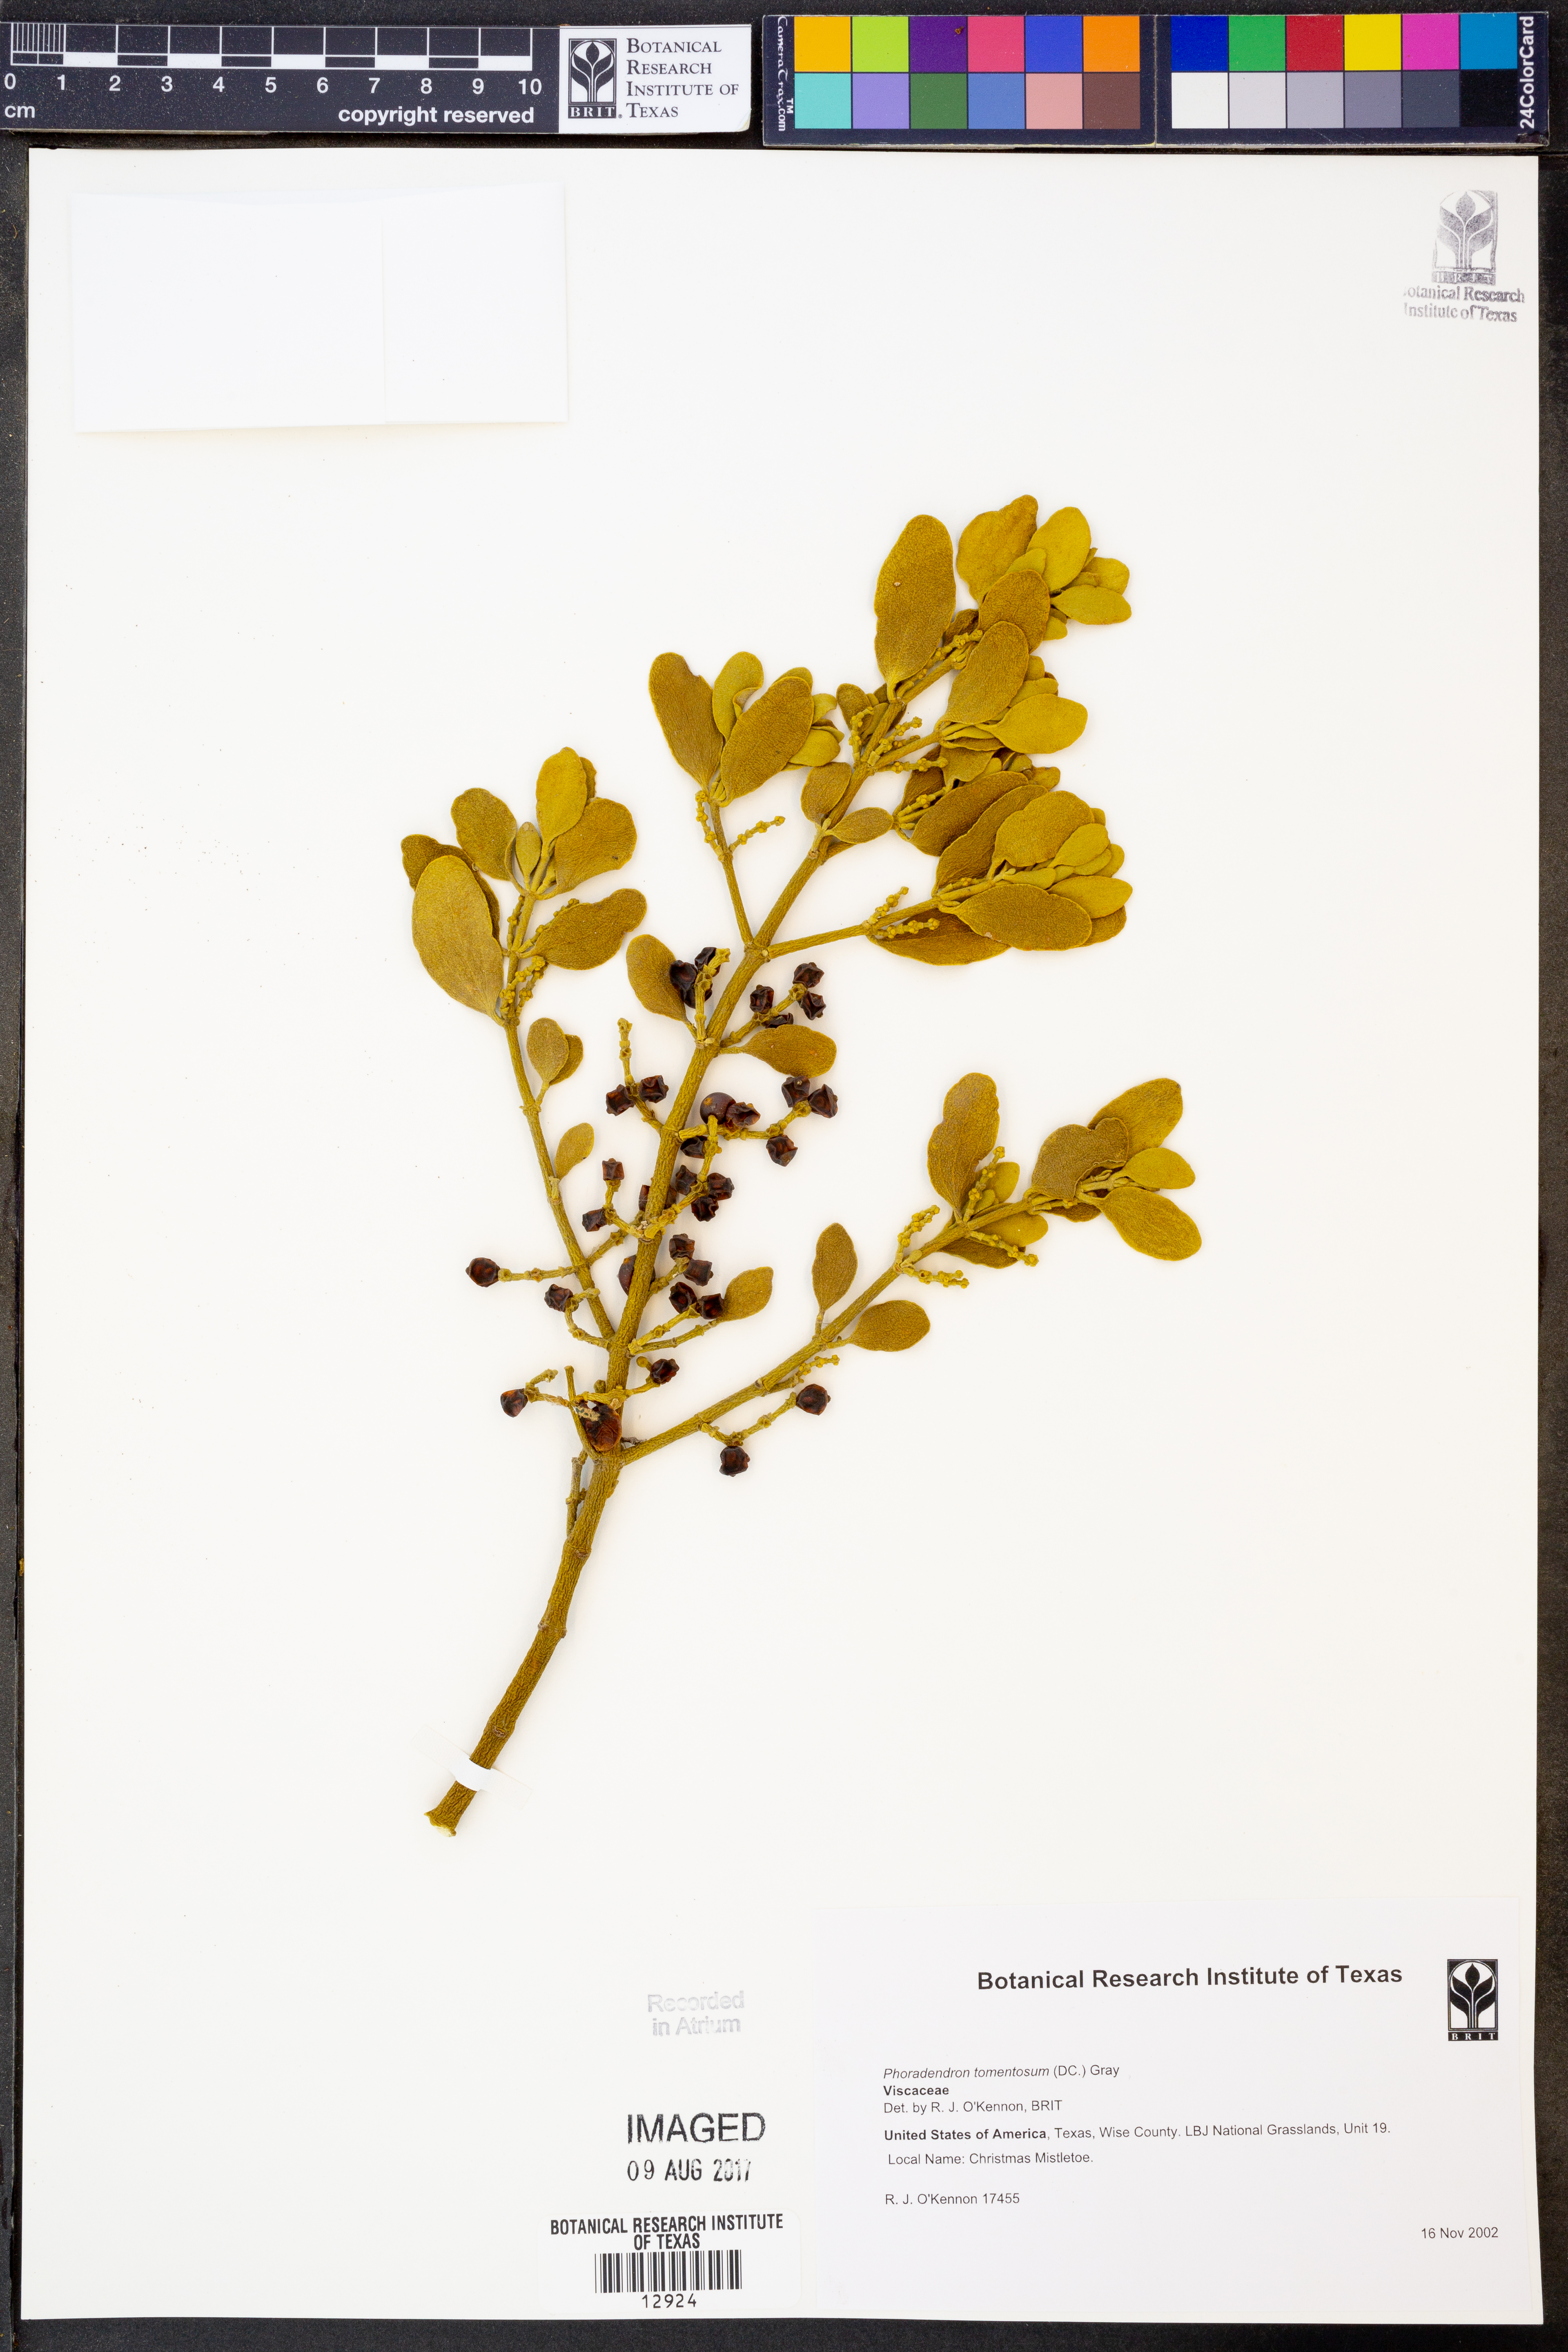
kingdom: Plantae
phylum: Tracheophyta
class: Magnoliopsida
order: Santalales
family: Viscaceae
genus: Phoradendron
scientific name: Phoradendron leucarpum
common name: Pacific mistletoe
